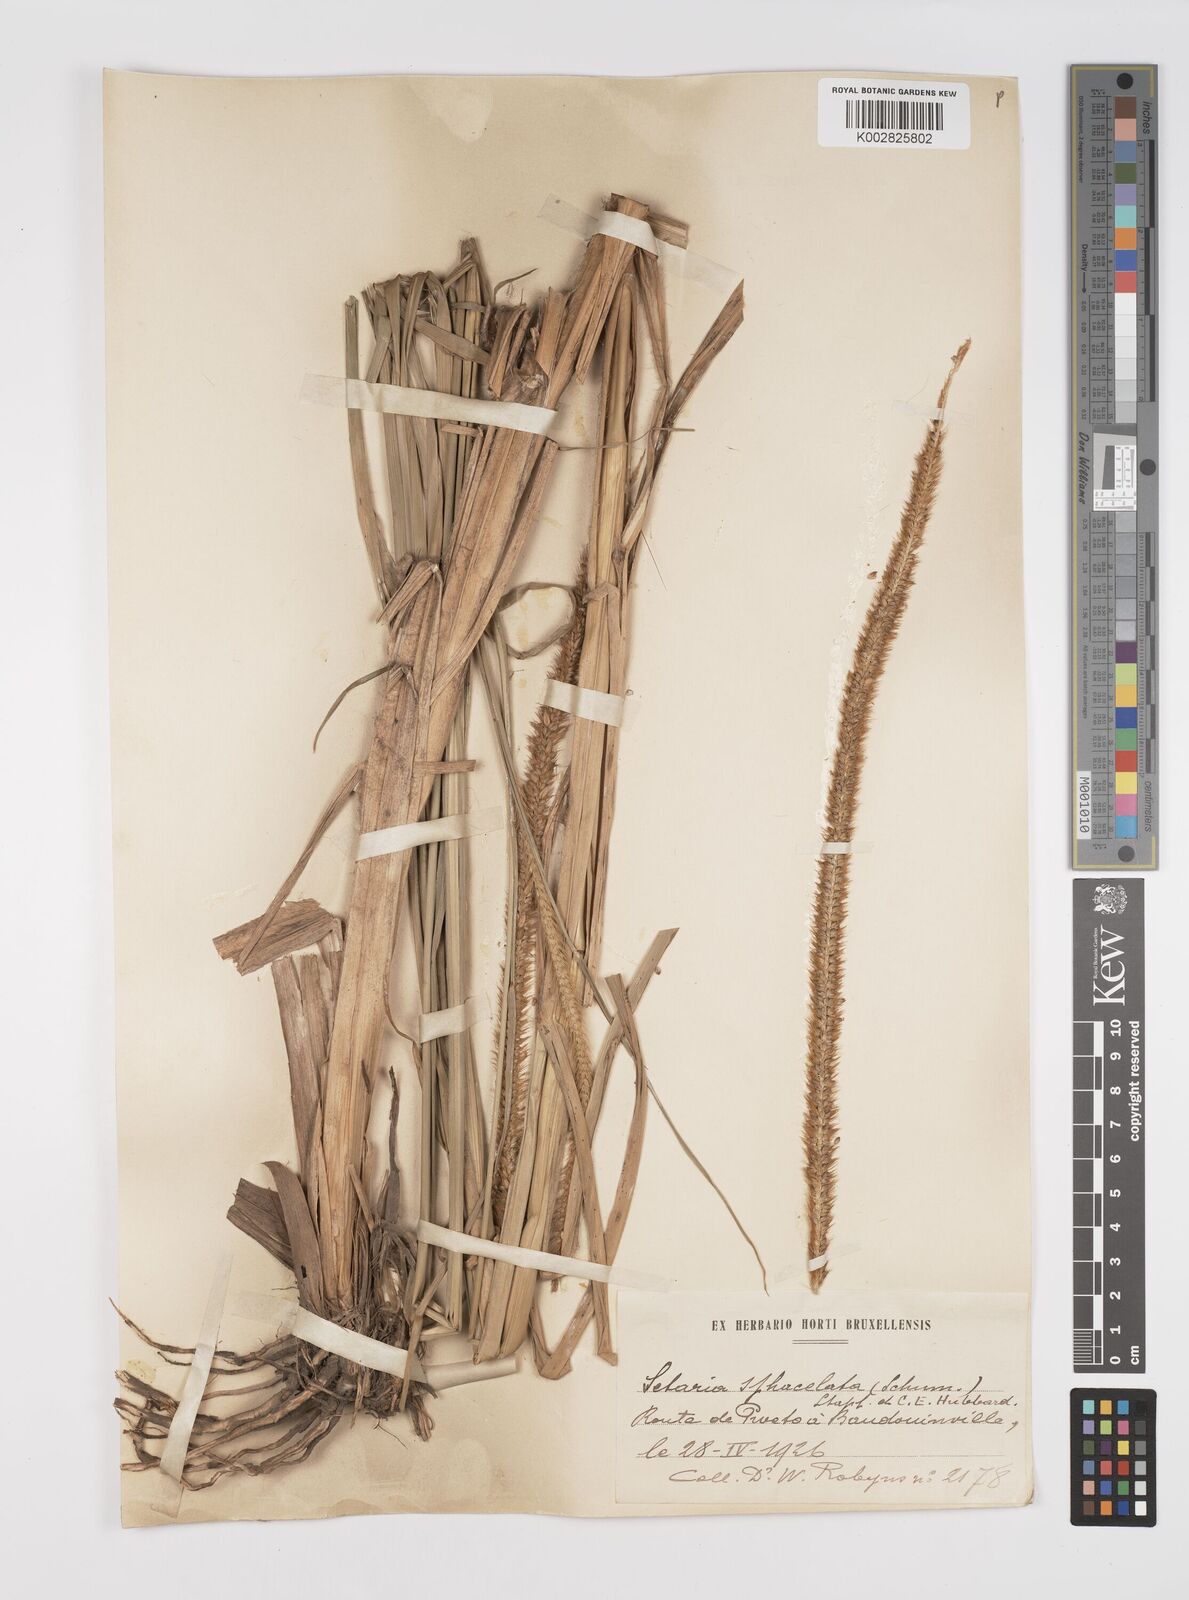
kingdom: Plantae
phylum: Tracheophyta
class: Liliopsida
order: Poales
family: Poaceae
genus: Setaria
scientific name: Setaria sphacelata
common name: African bristlegrass
